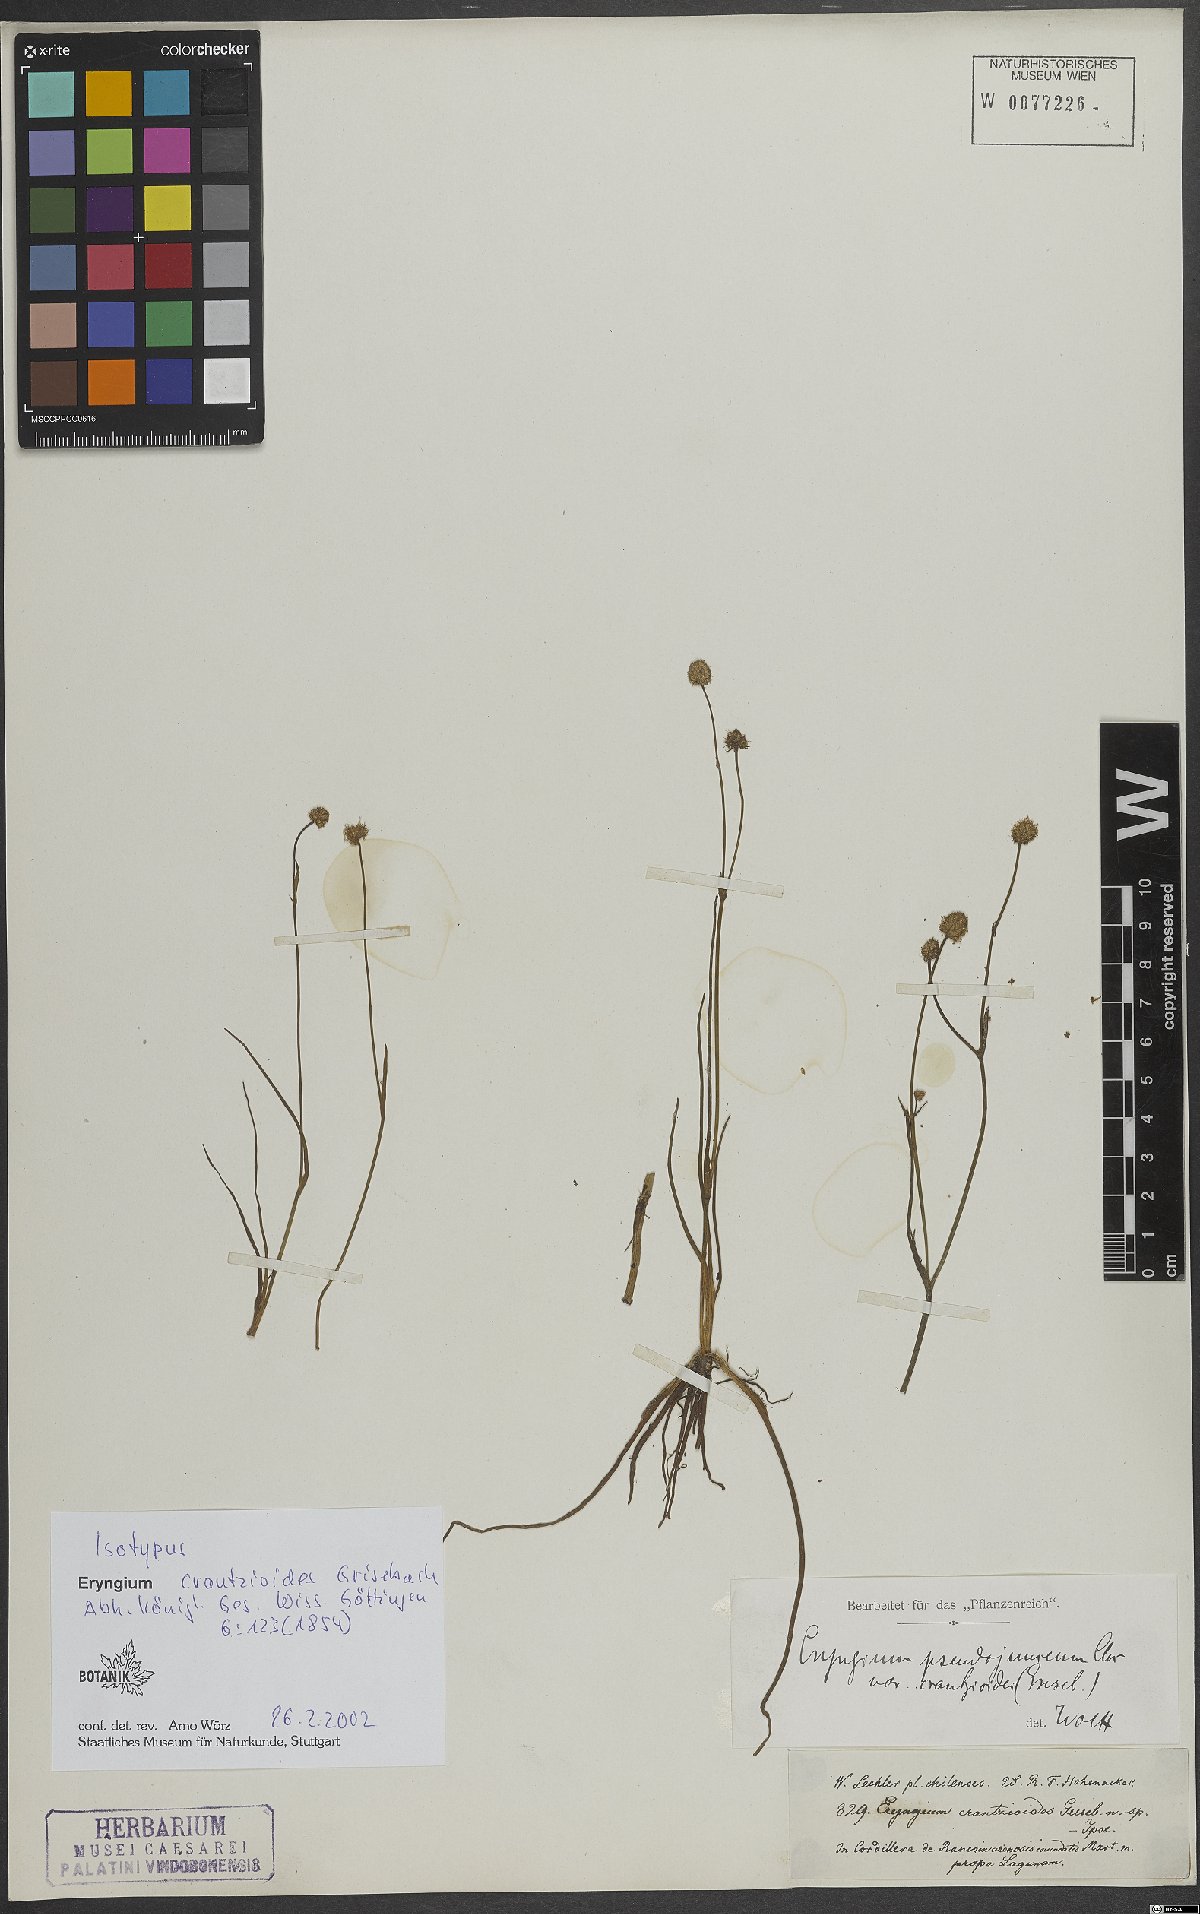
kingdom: Plantae
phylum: Tracheophyta
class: Magnoliopsida
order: Apiales
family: Apiaceae
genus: Eryngium
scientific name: Eryngium pseudojunceum
